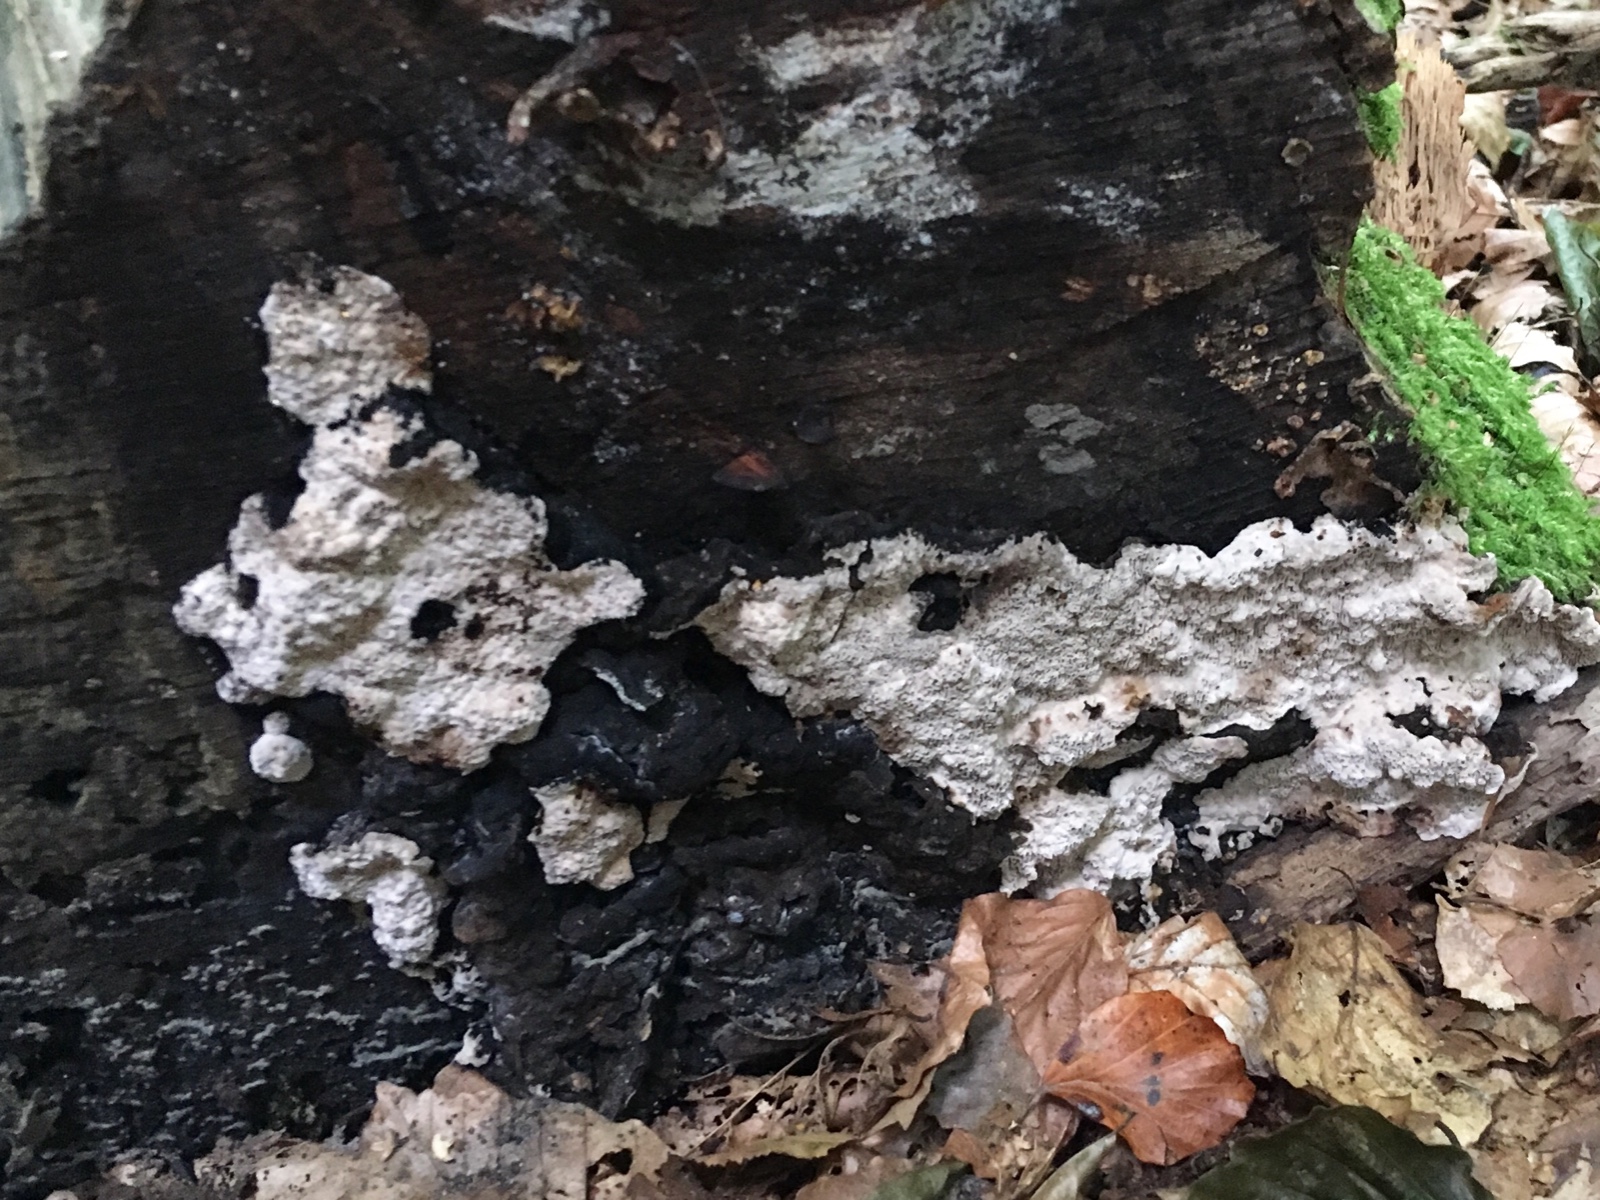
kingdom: Fungi
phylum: Basidiomycota
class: Agaricomycetes
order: Polyporales
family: Polyporaceae
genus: Podofomes
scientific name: Podofomes mollis
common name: blød begporesvamp
